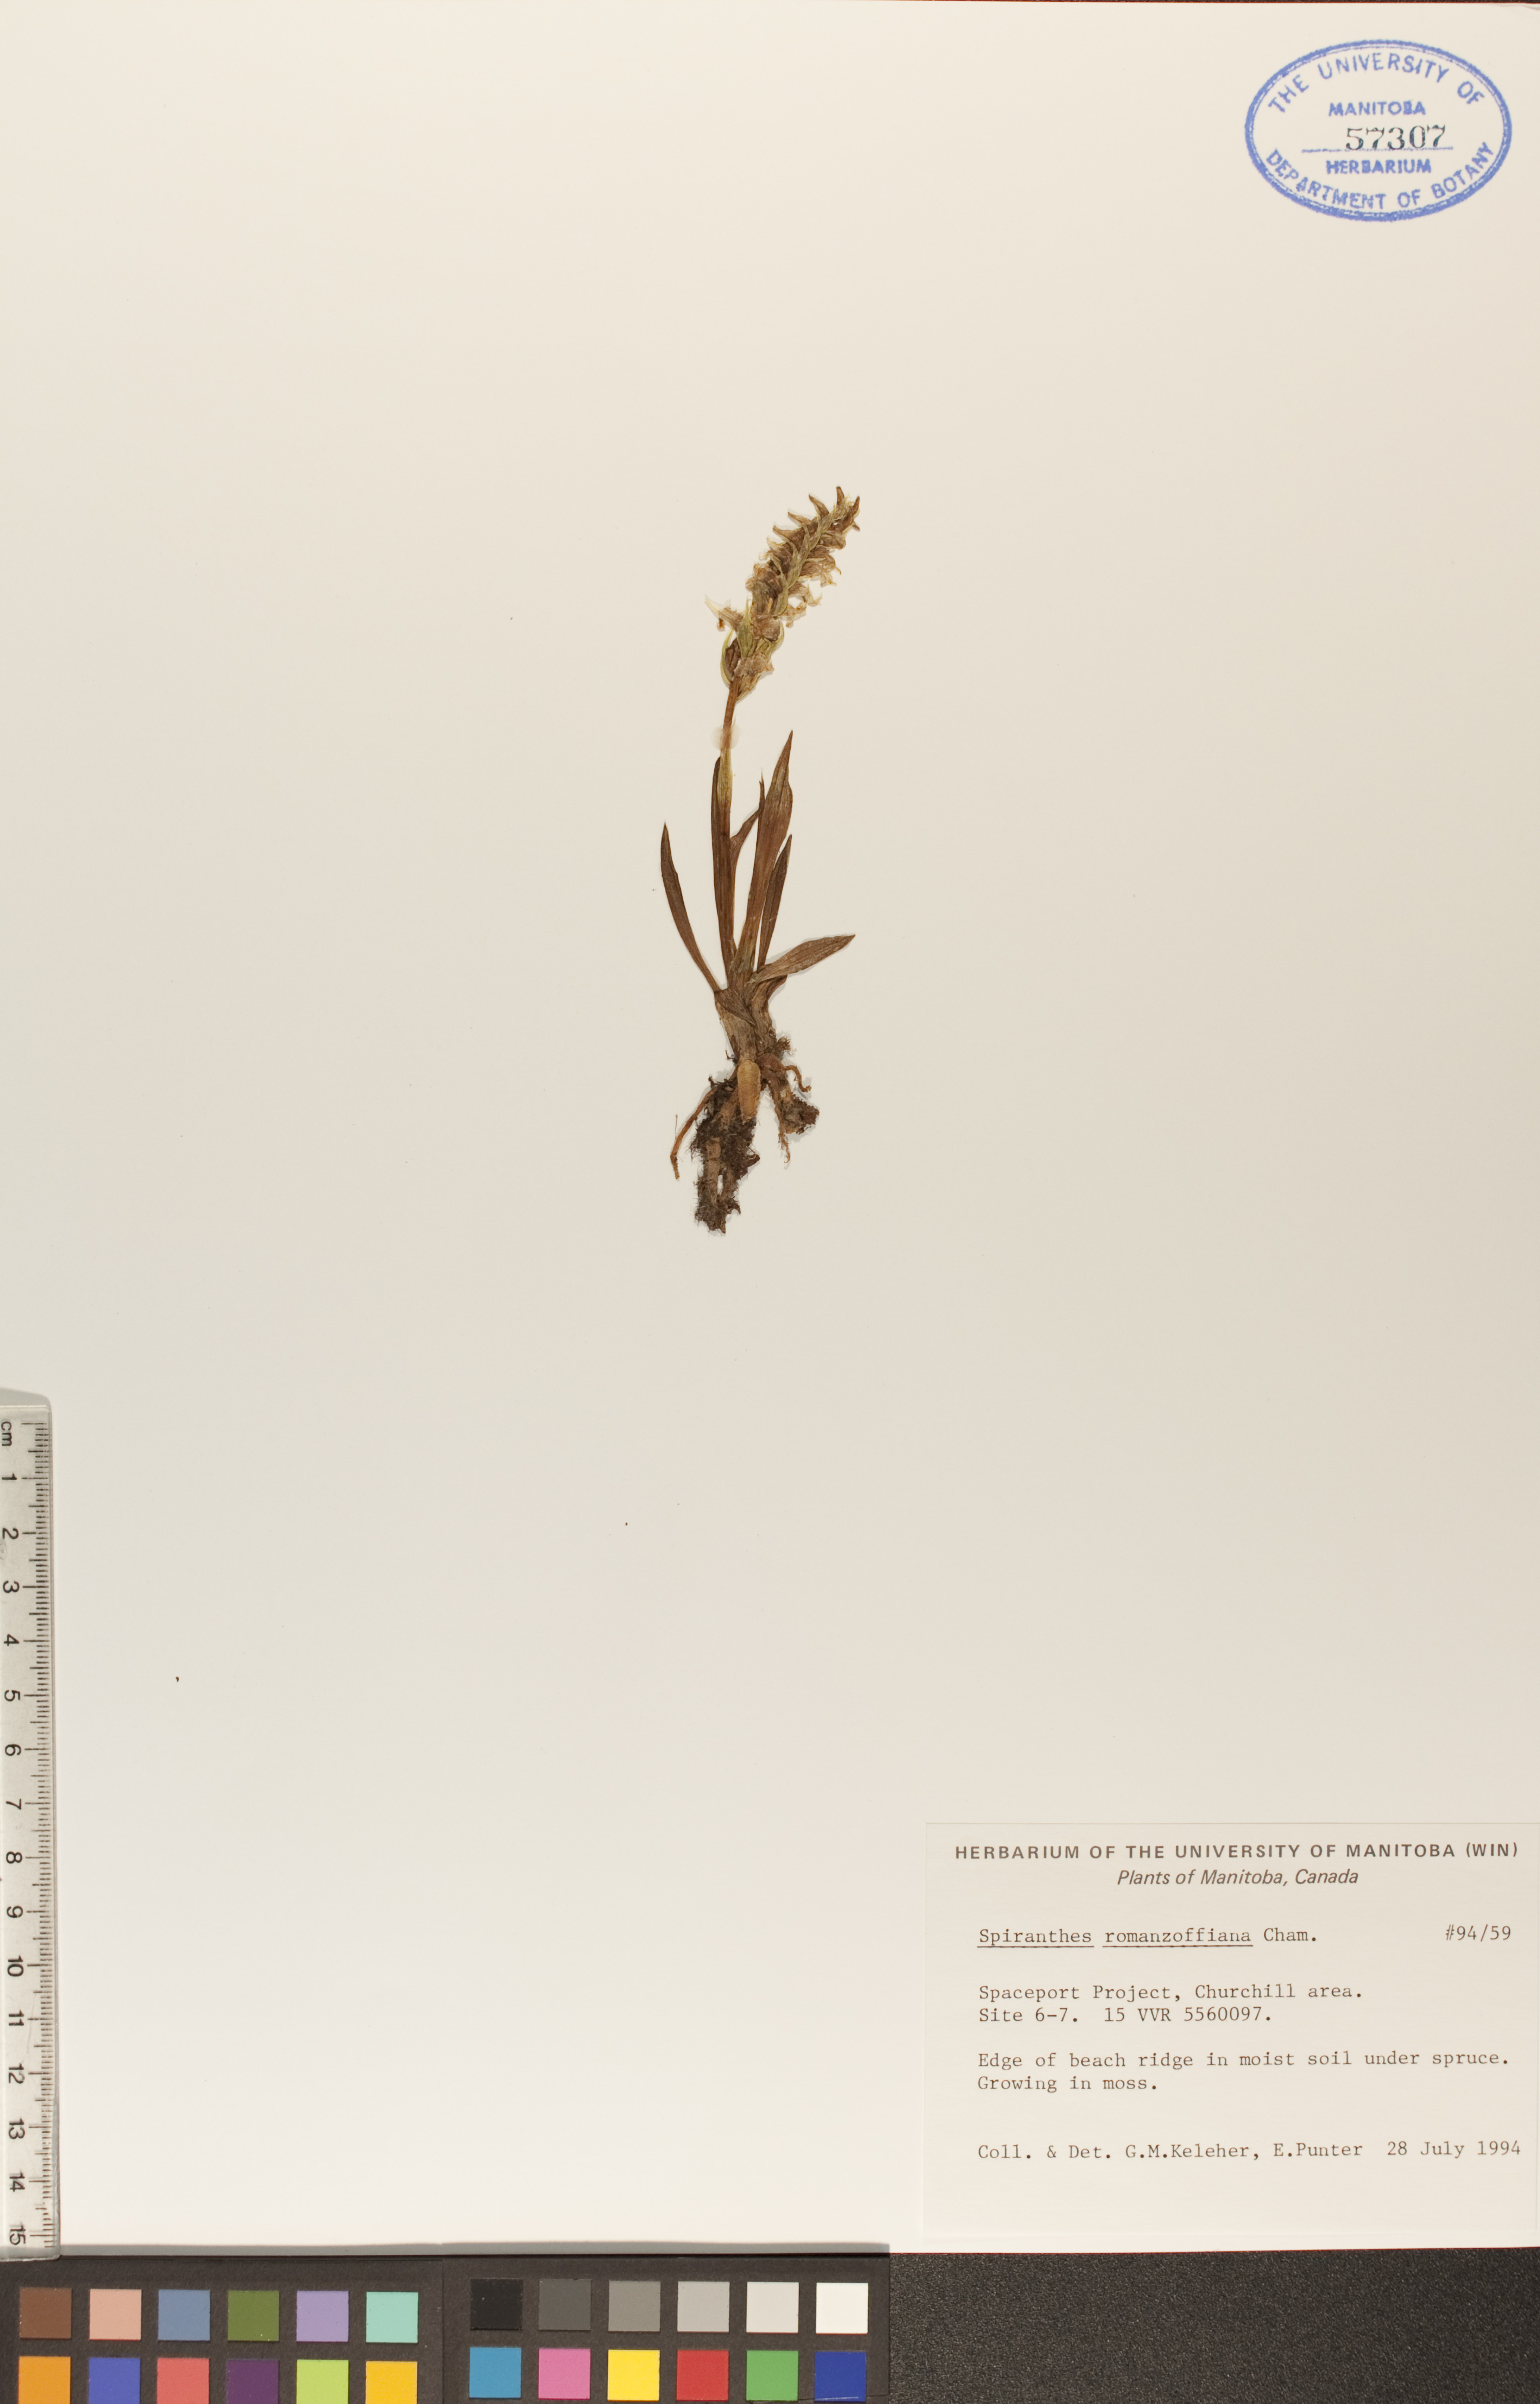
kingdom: Plantae
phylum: Tracheophyta
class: Liliopsida
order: Asparagales
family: Orchidaceae
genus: Spiranthes
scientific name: Spiranthes romanzoffiana
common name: Irish lady's-tresses
